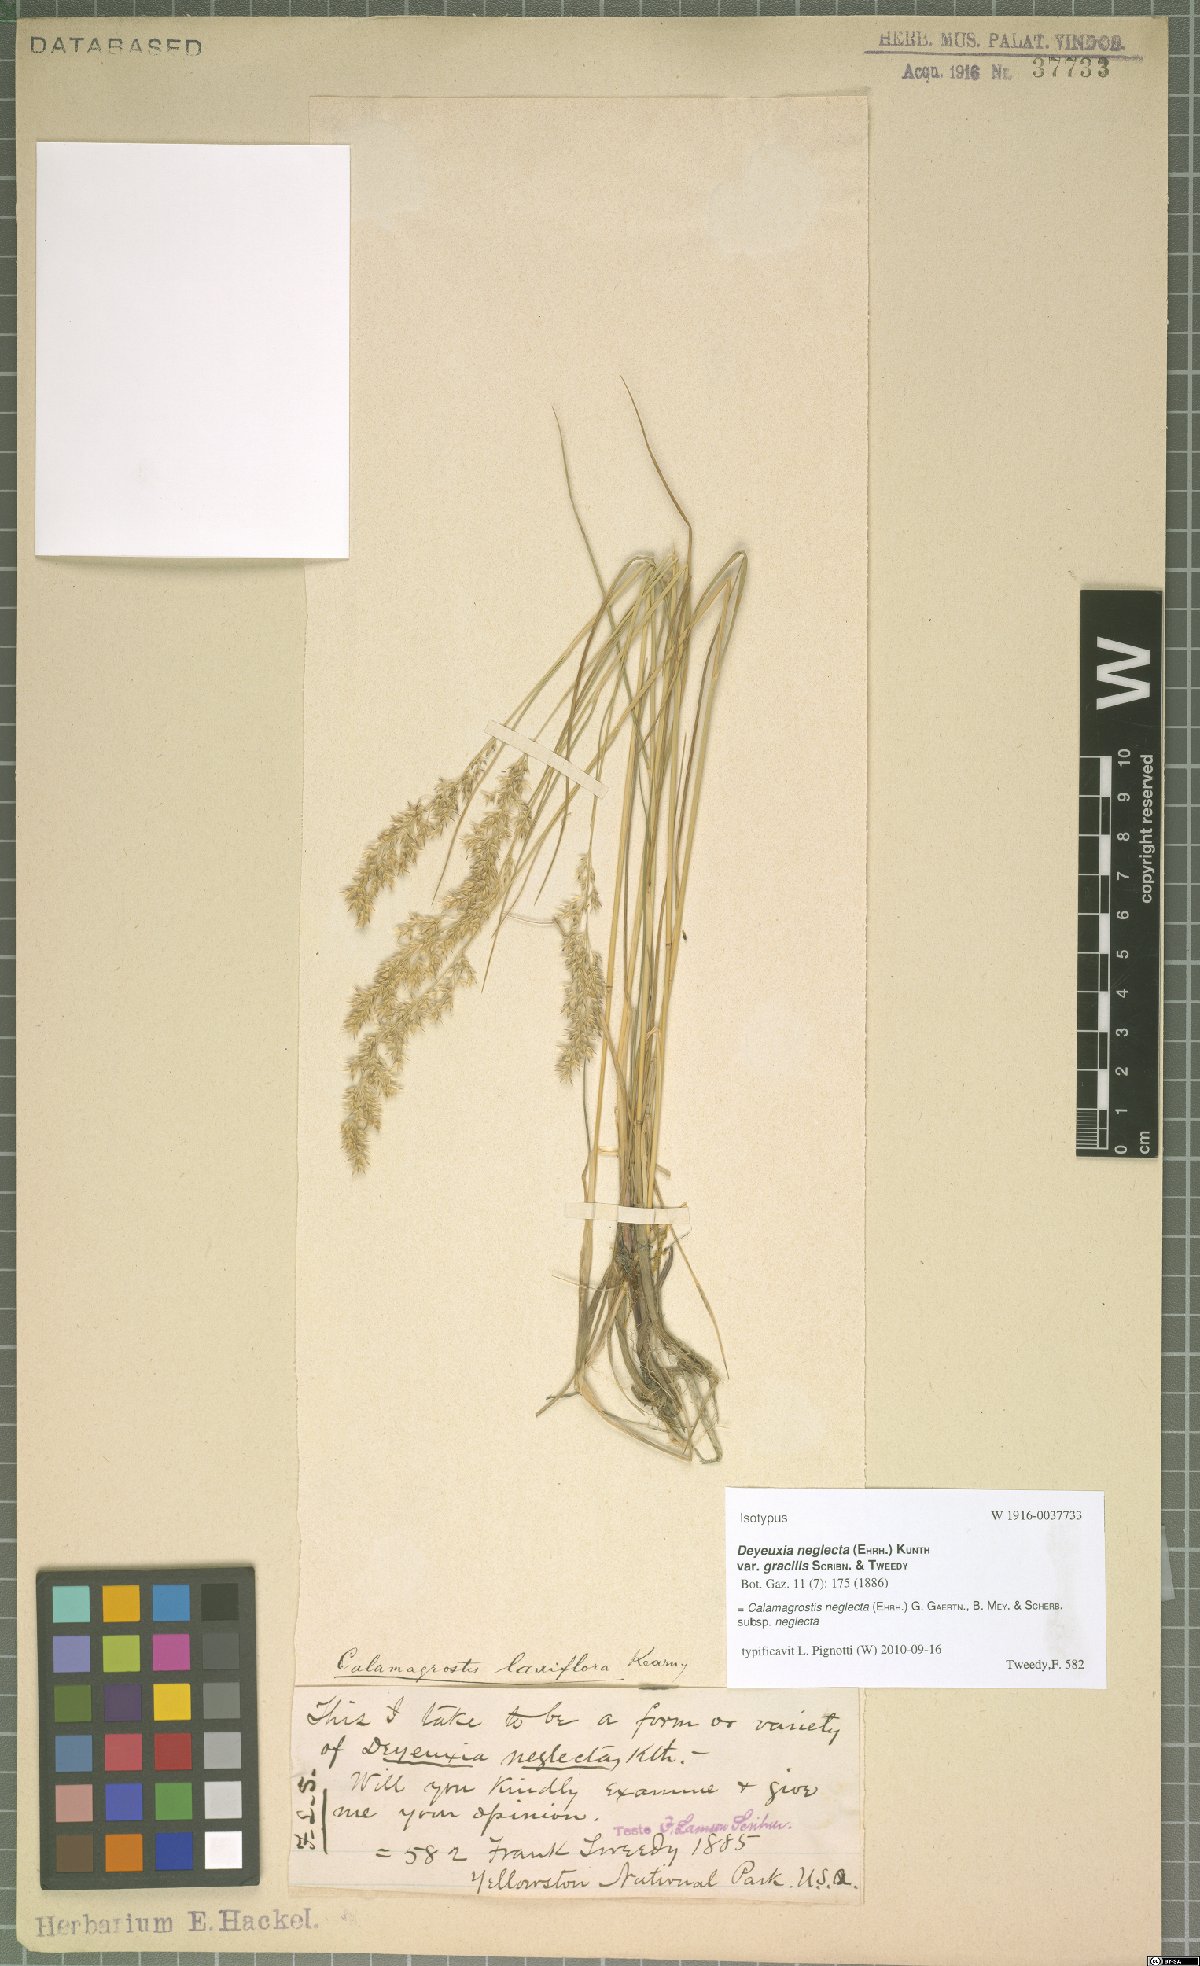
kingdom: Plantae
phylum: Tracheophyta
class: Liliopsida
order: Poales
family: Poaceae
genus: Achnatherum
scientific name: Achnatherum calamagrostis
